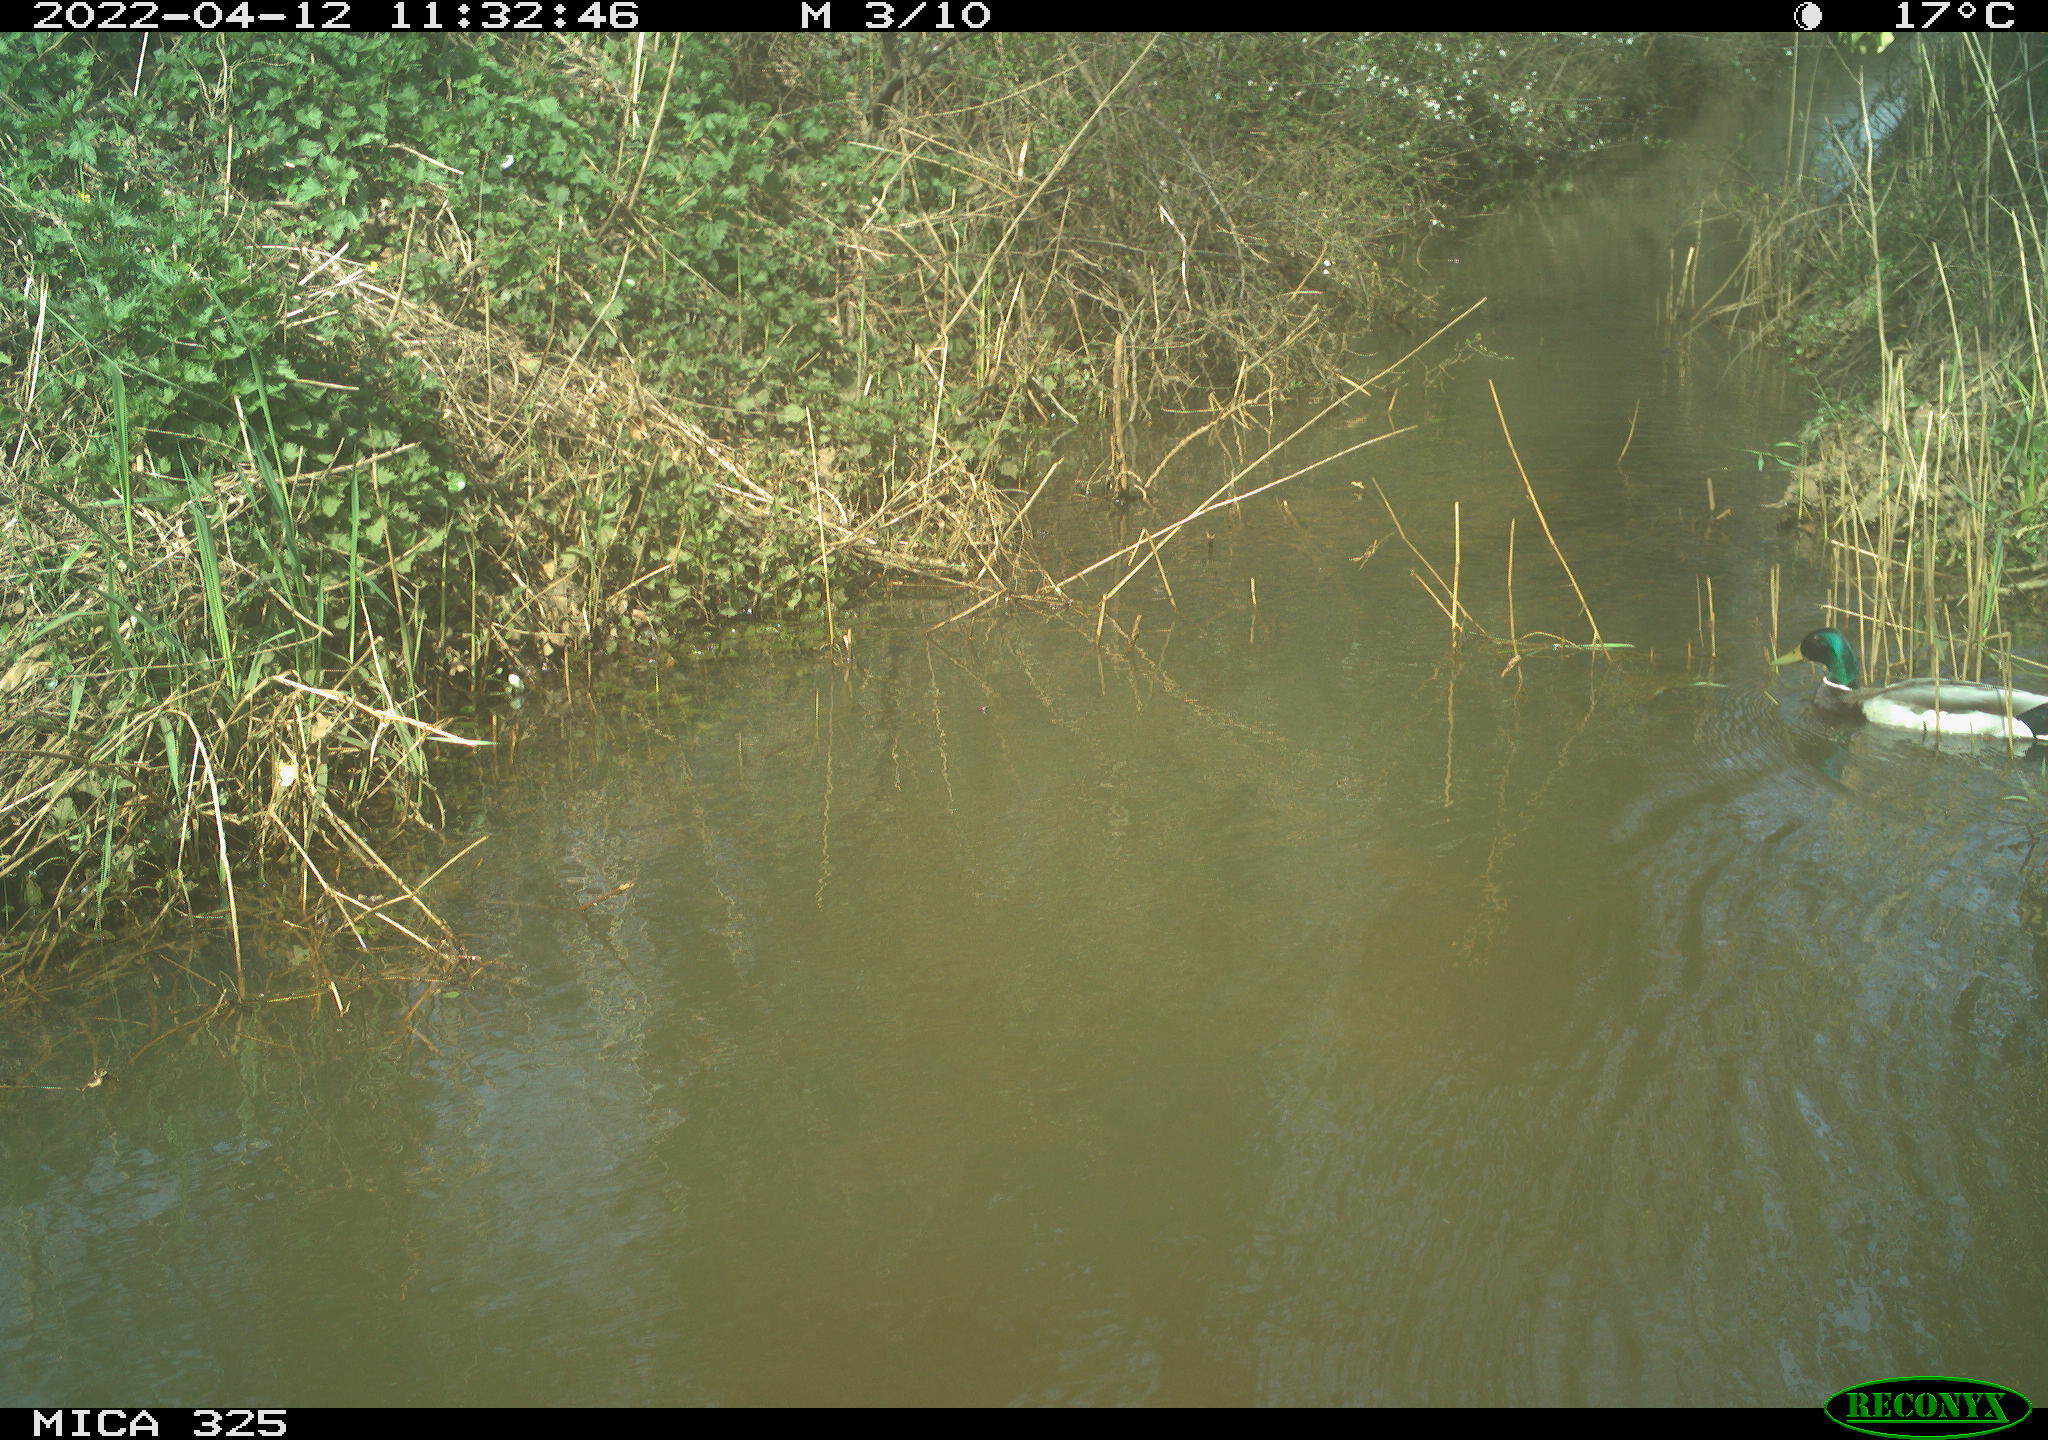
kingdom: Animalia
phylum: Chordata
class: Aves
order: Anseriformes
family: Anatidae
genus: Anas
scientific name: Anas platyrhynchos
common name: Mallard
